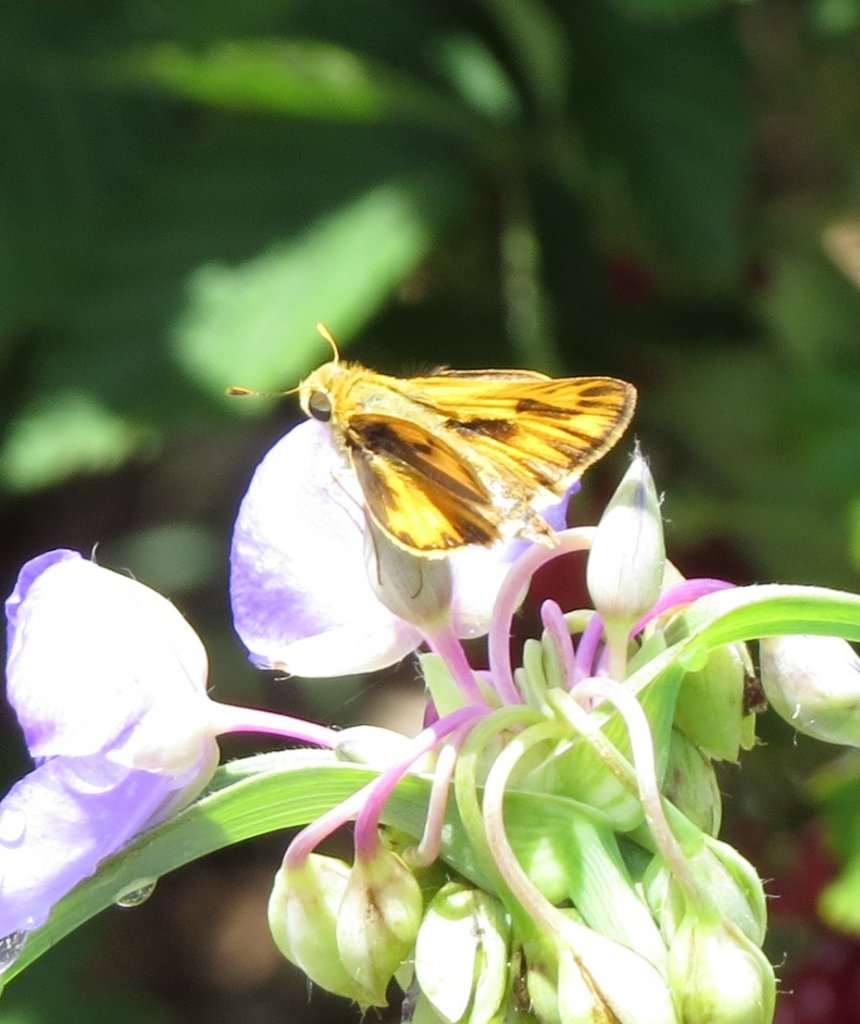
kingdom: Animalia
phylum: Arthropoda
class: Insecta
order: Lepidoptera
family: Hesperiidae
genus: Hylephila
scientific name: Hylephila phyleus
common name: Fiery Skipper
